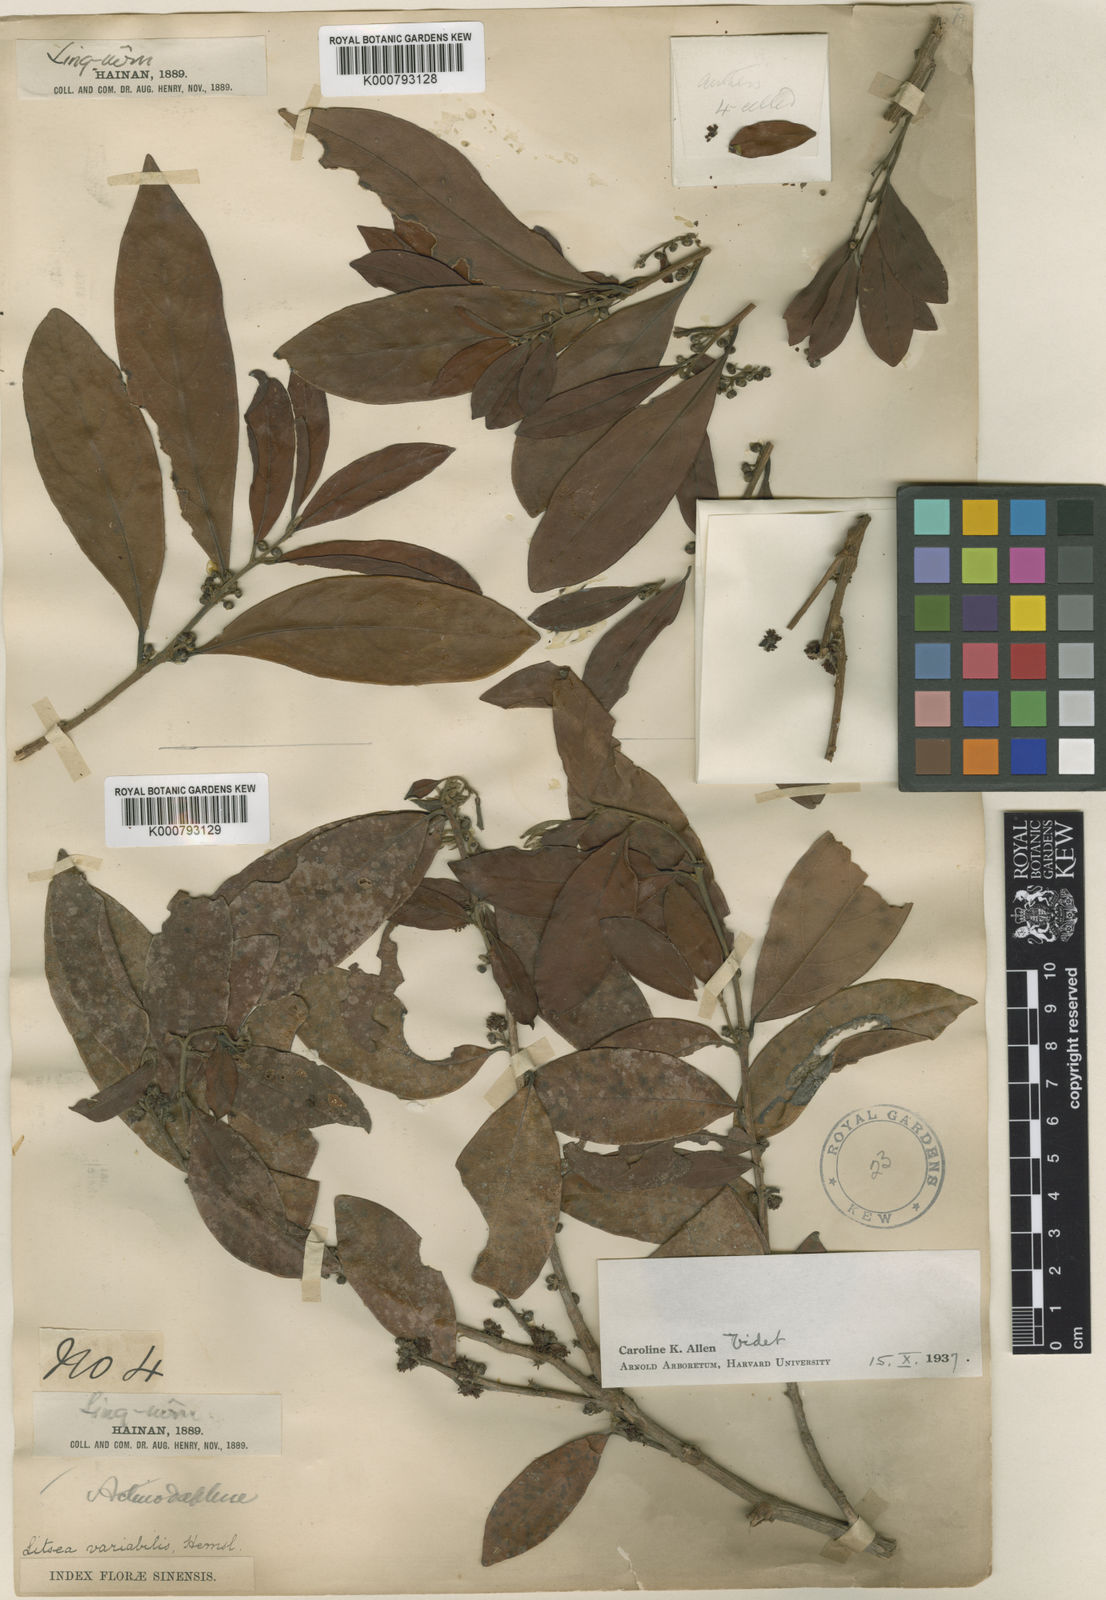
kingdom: Plantae
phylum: Tracheophyta
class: Magnoliopsida
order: Laurales
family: Lauraceae
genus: Litsea
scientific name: Litsea variabilis
